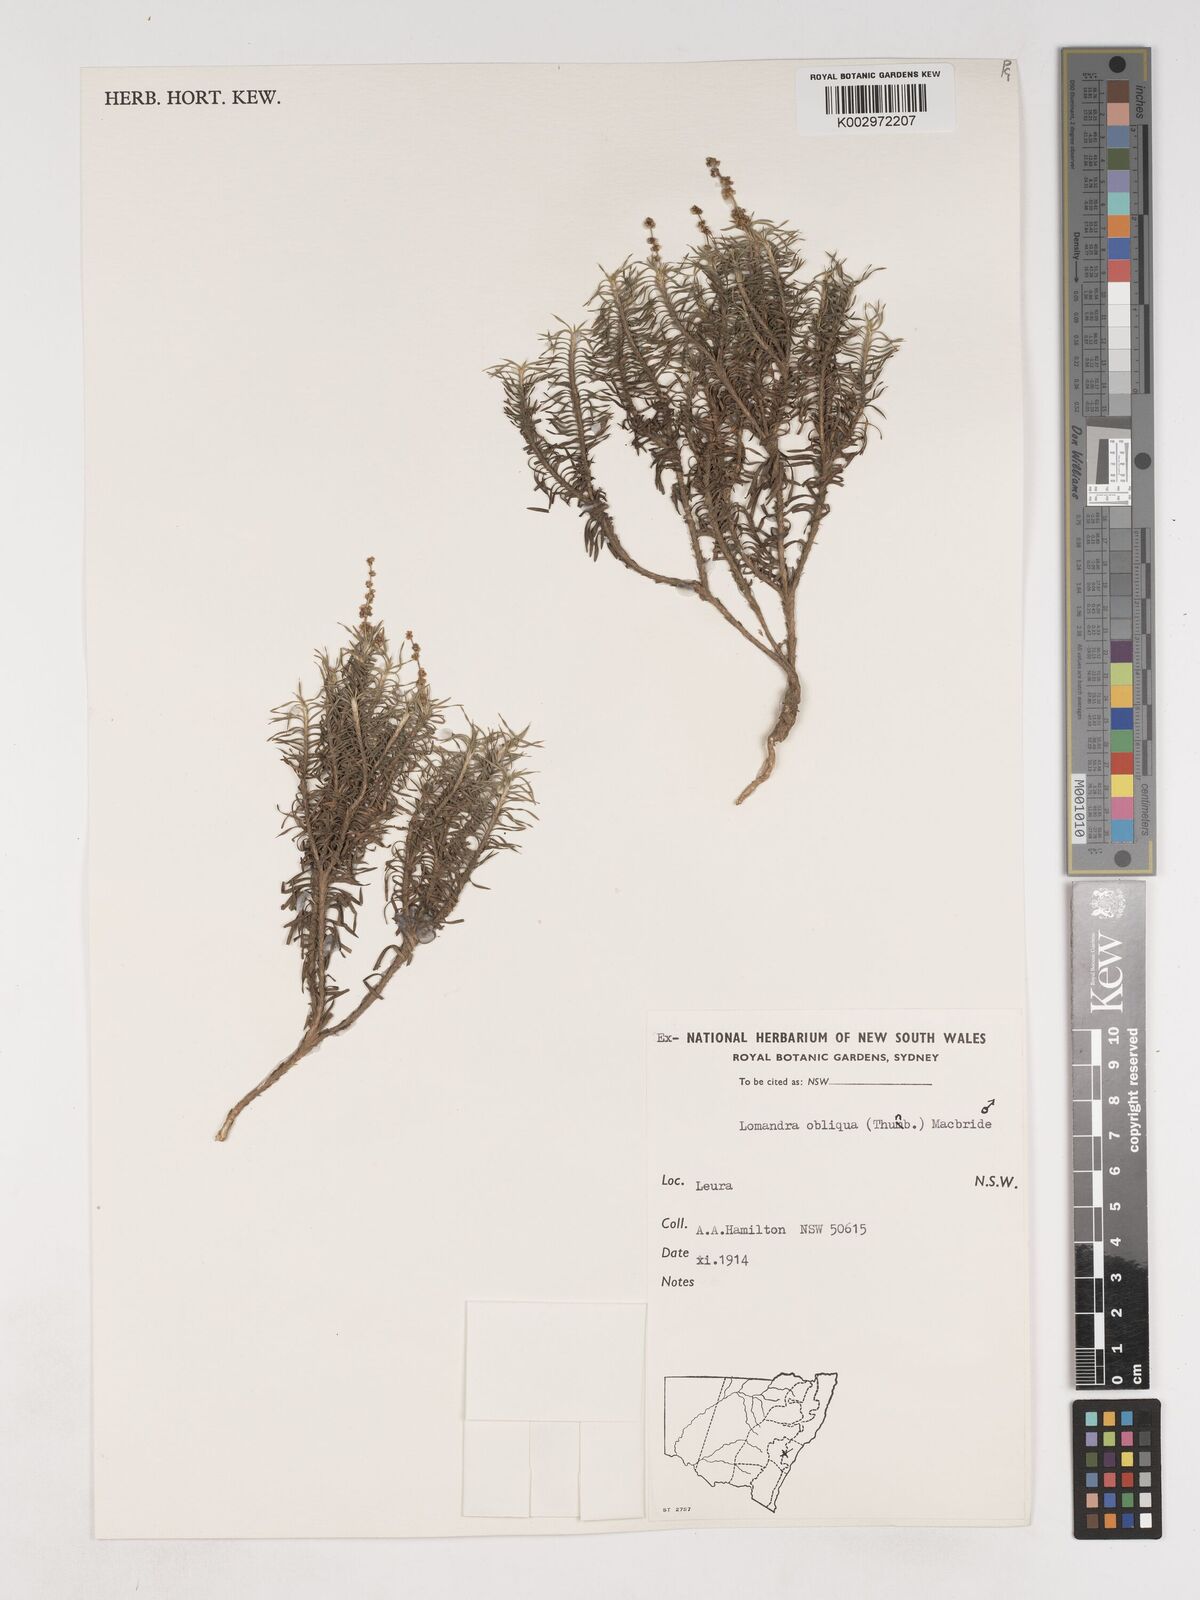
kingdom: Plantae
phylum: Tracheophyta
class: Liliopsida
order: Asparagales
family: Asparagaceae
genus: Lomandra
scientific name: Lomandra obliqua
